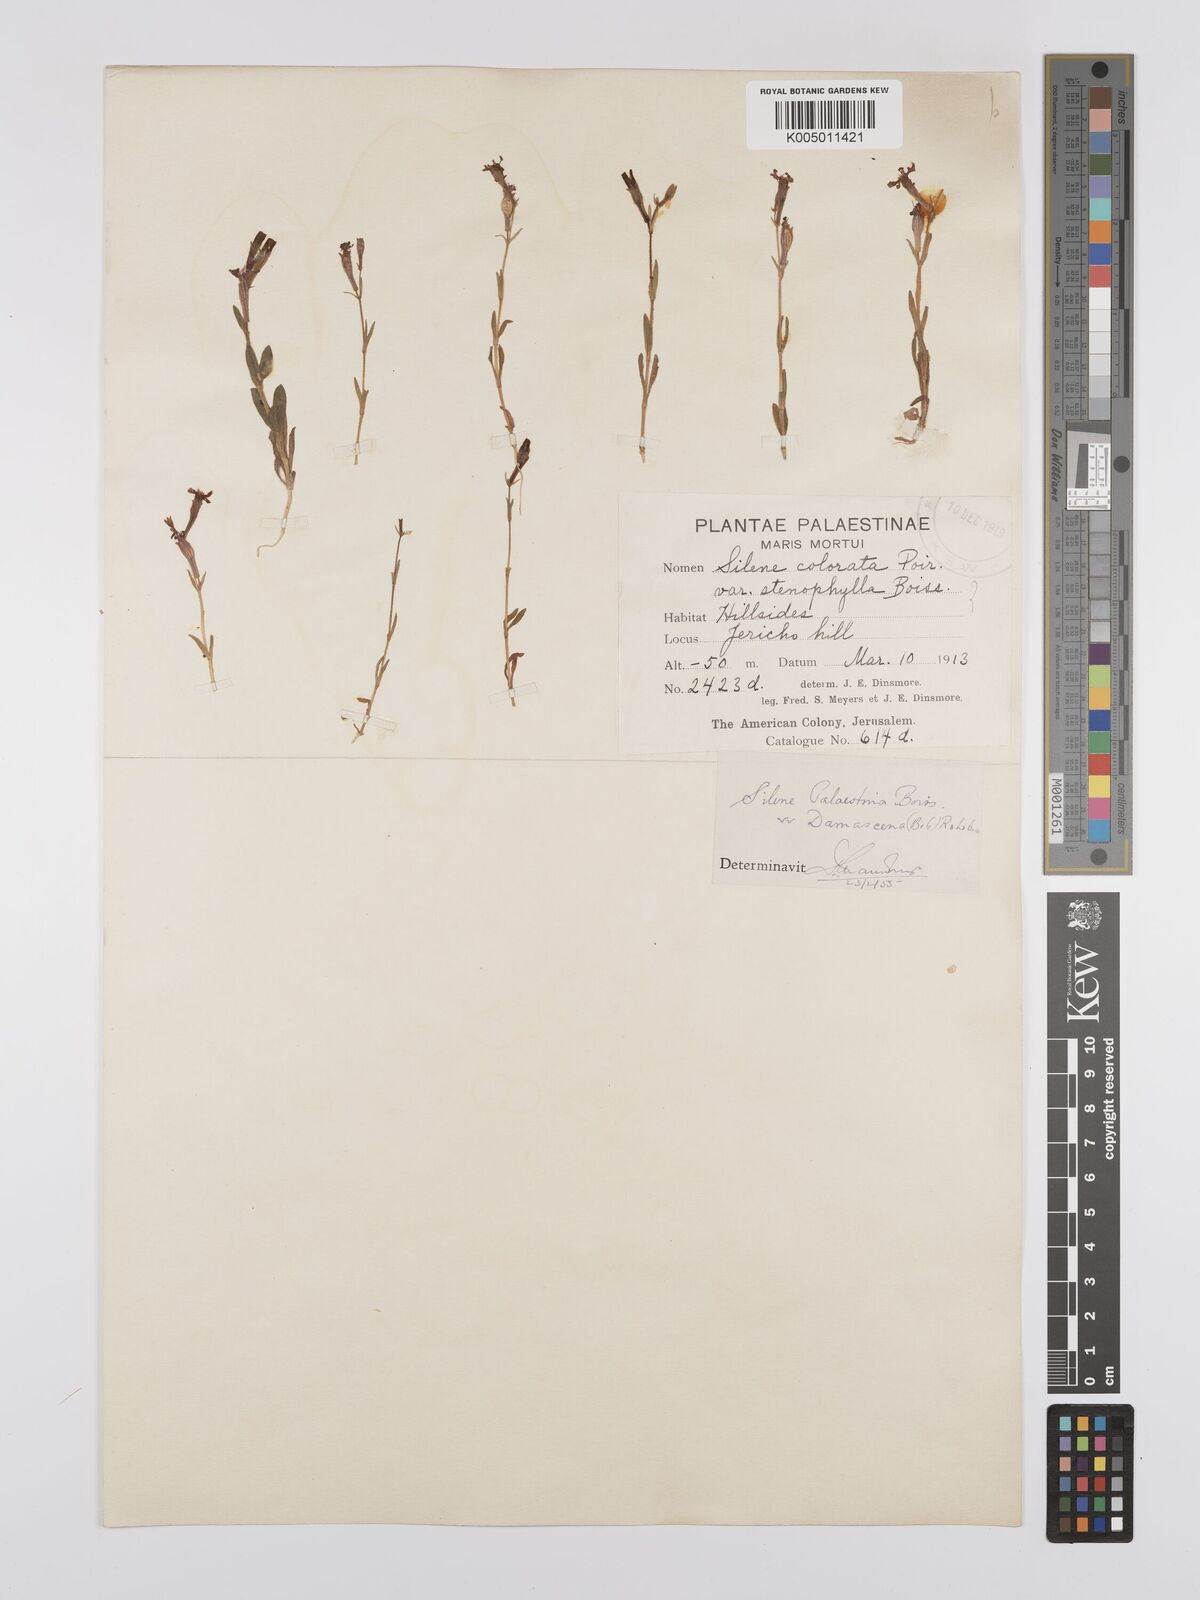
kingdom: Plantae
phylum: Tracheophyta
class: Magnoliopsida
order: Caryophyllales
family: Caryophyllaceae
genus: Silene
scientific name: Silene damascena
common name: Damascus catchfly
